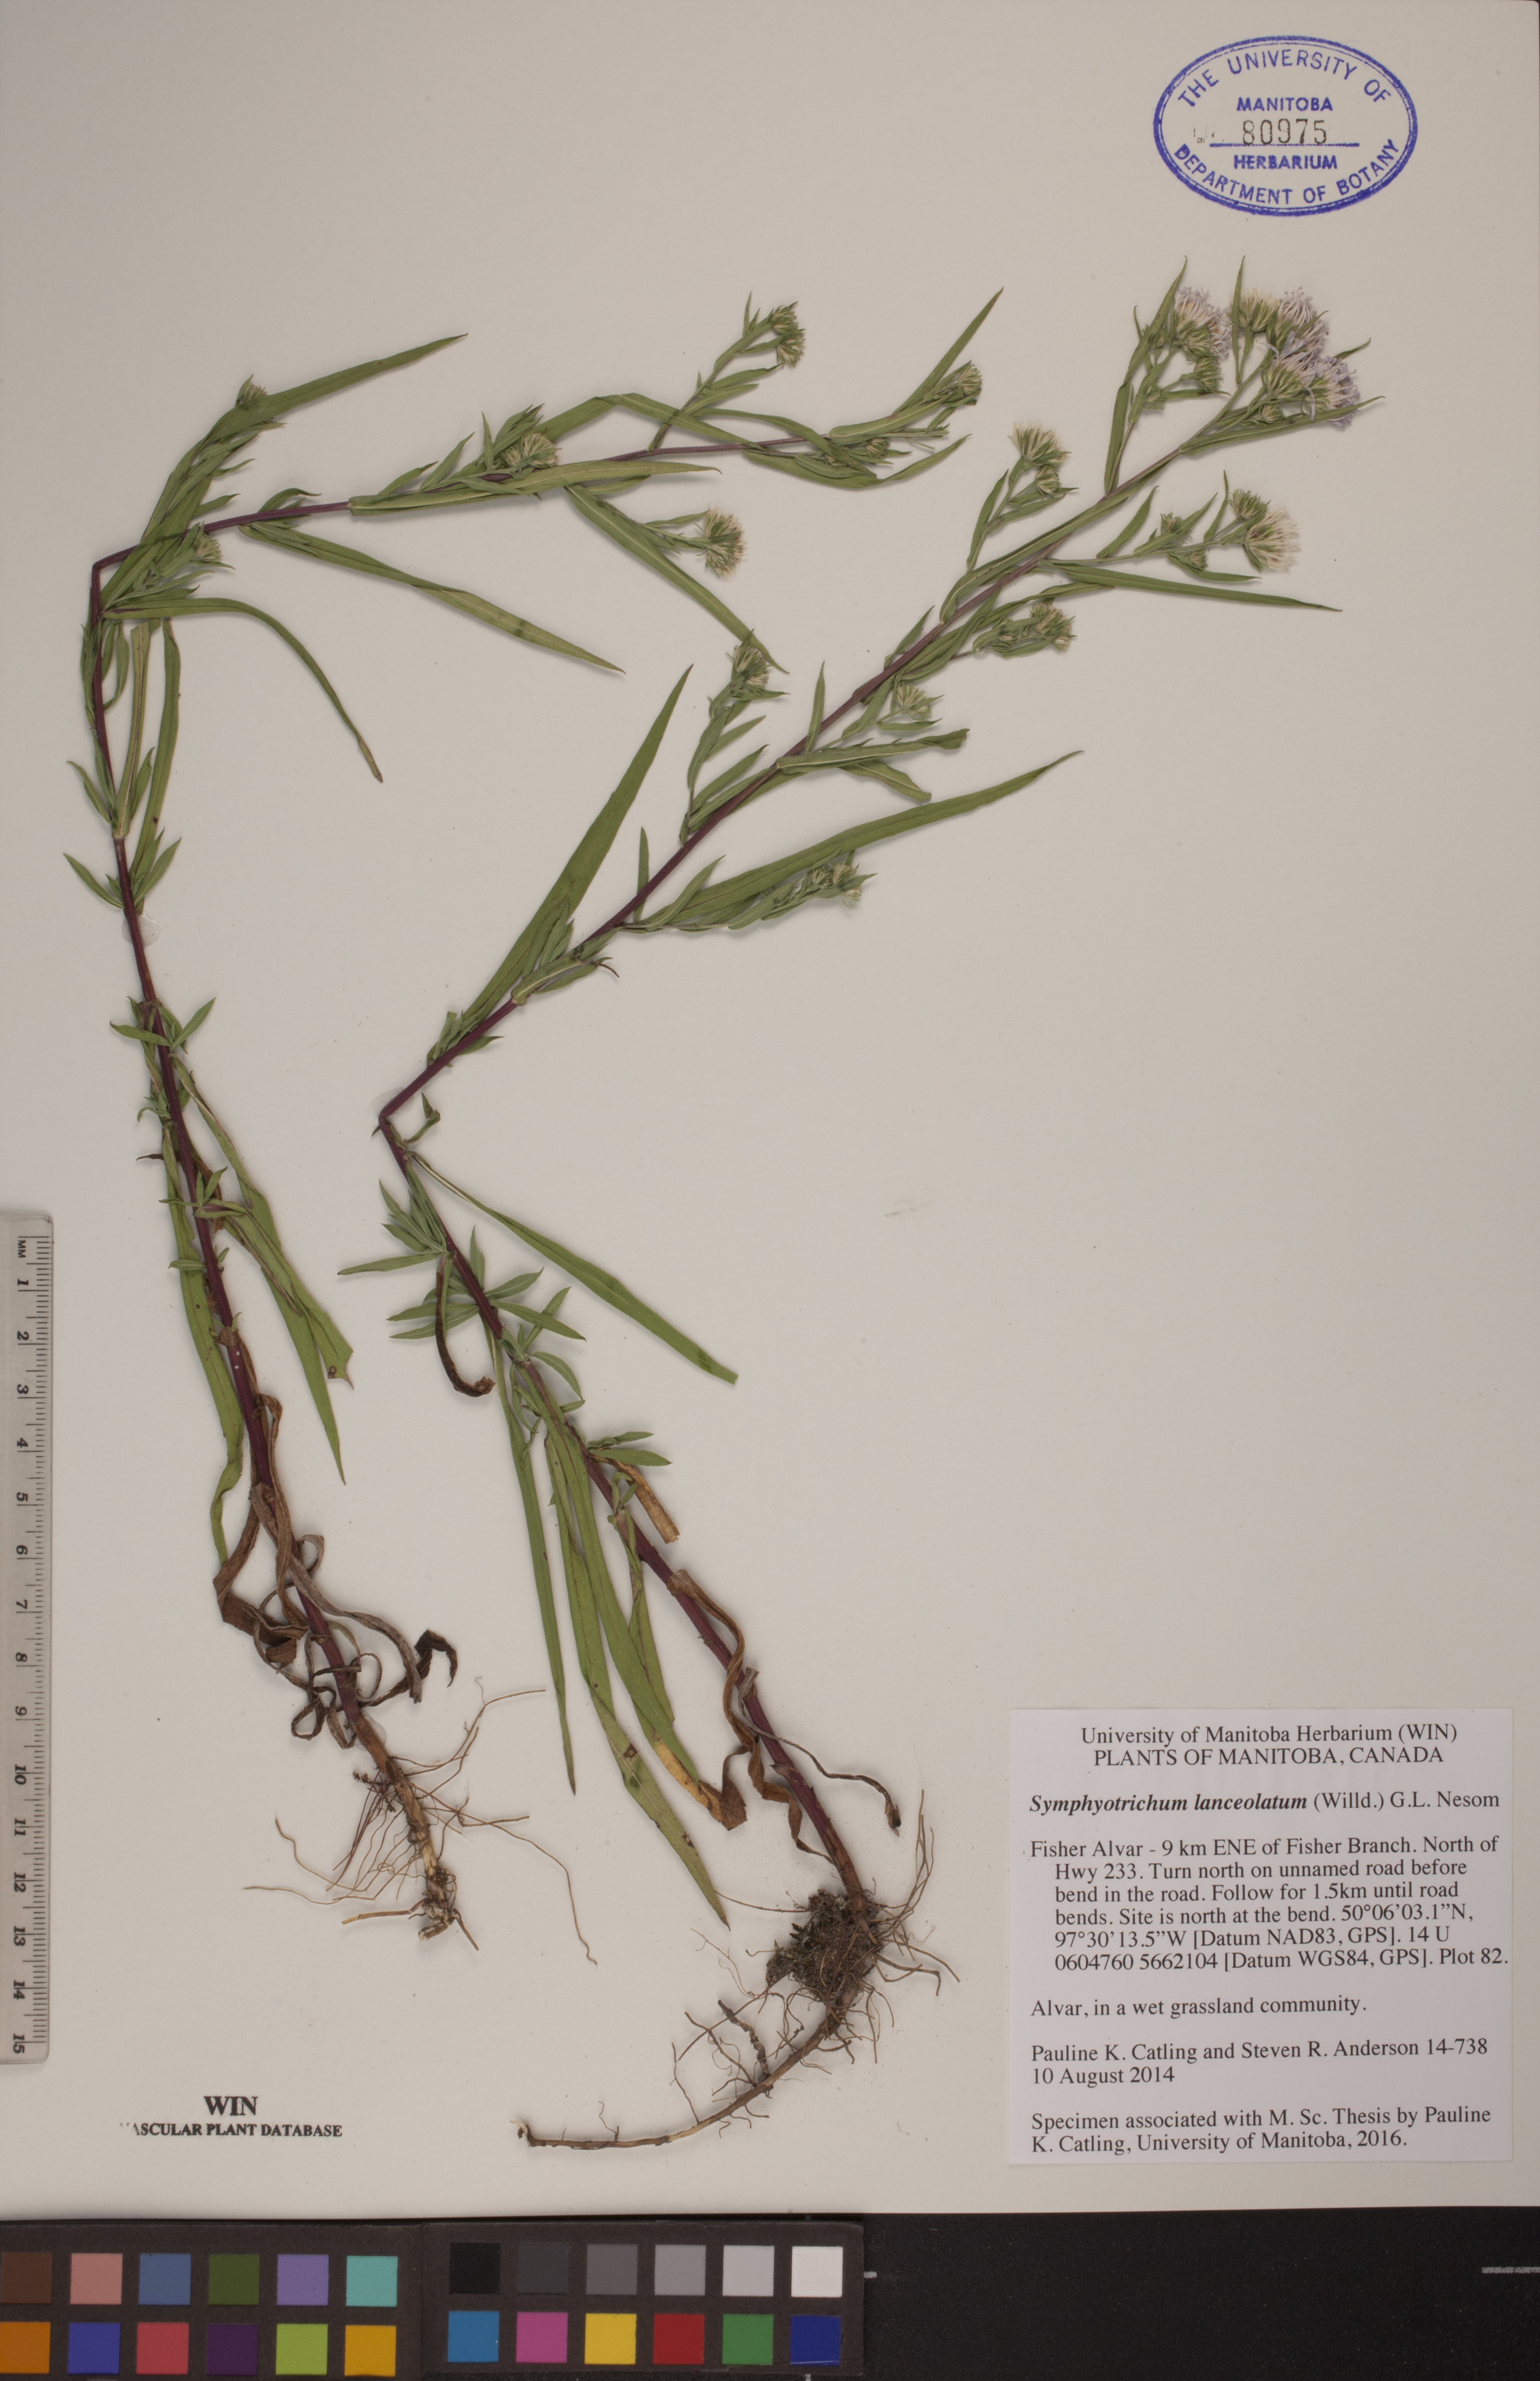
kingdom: Plantae
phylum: Tracheophyta
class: Magnoliopsida
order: Asterales
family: Asteraceae
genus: Symphyotrichum
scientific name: Symphyotrichum lanceolatum
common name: Panicled aster
